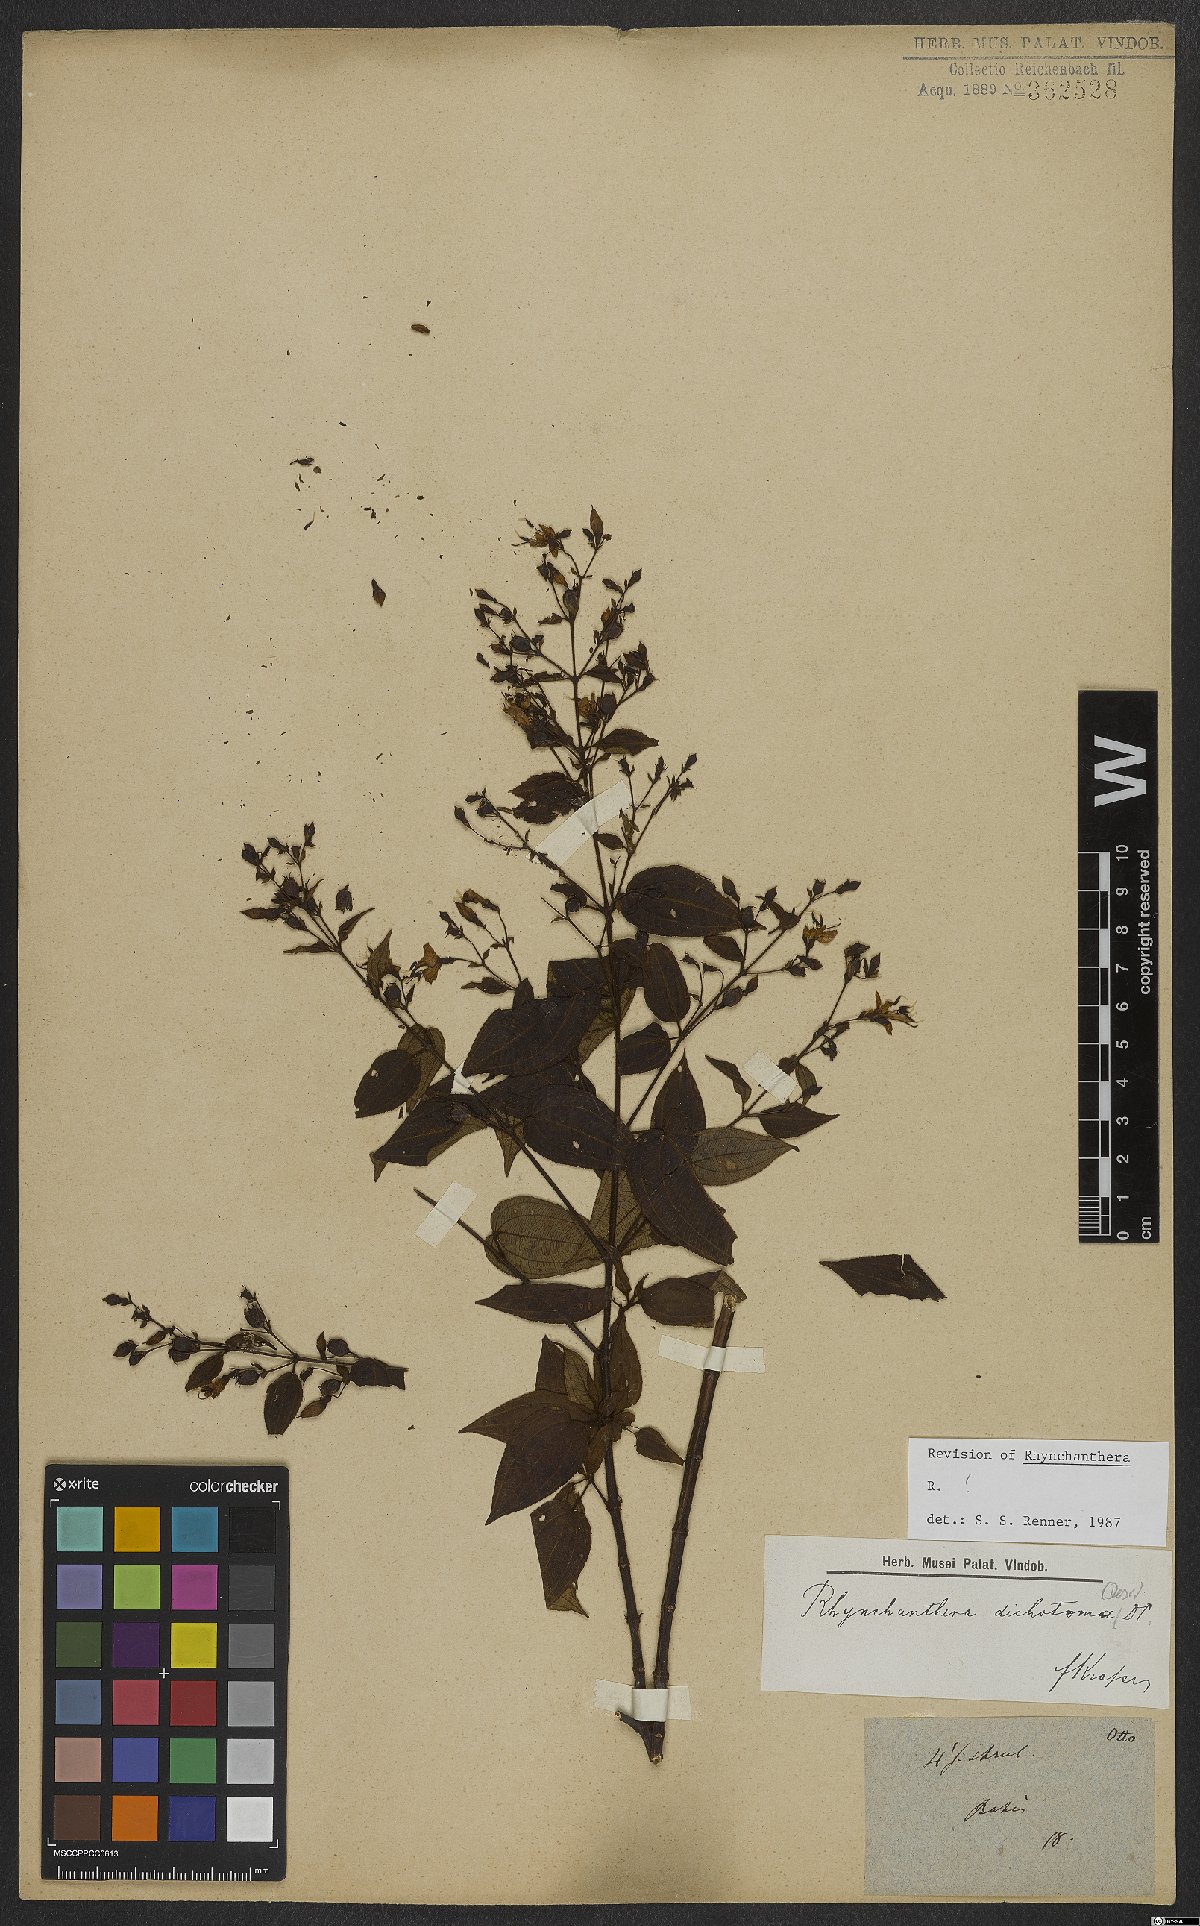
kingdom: Plantae
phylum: Tracheophyta
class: Magnoliopsida
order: Myrtales
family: Melastomataceae
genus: Rhynchanthera
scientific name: Rhynchanthera dichotoma
